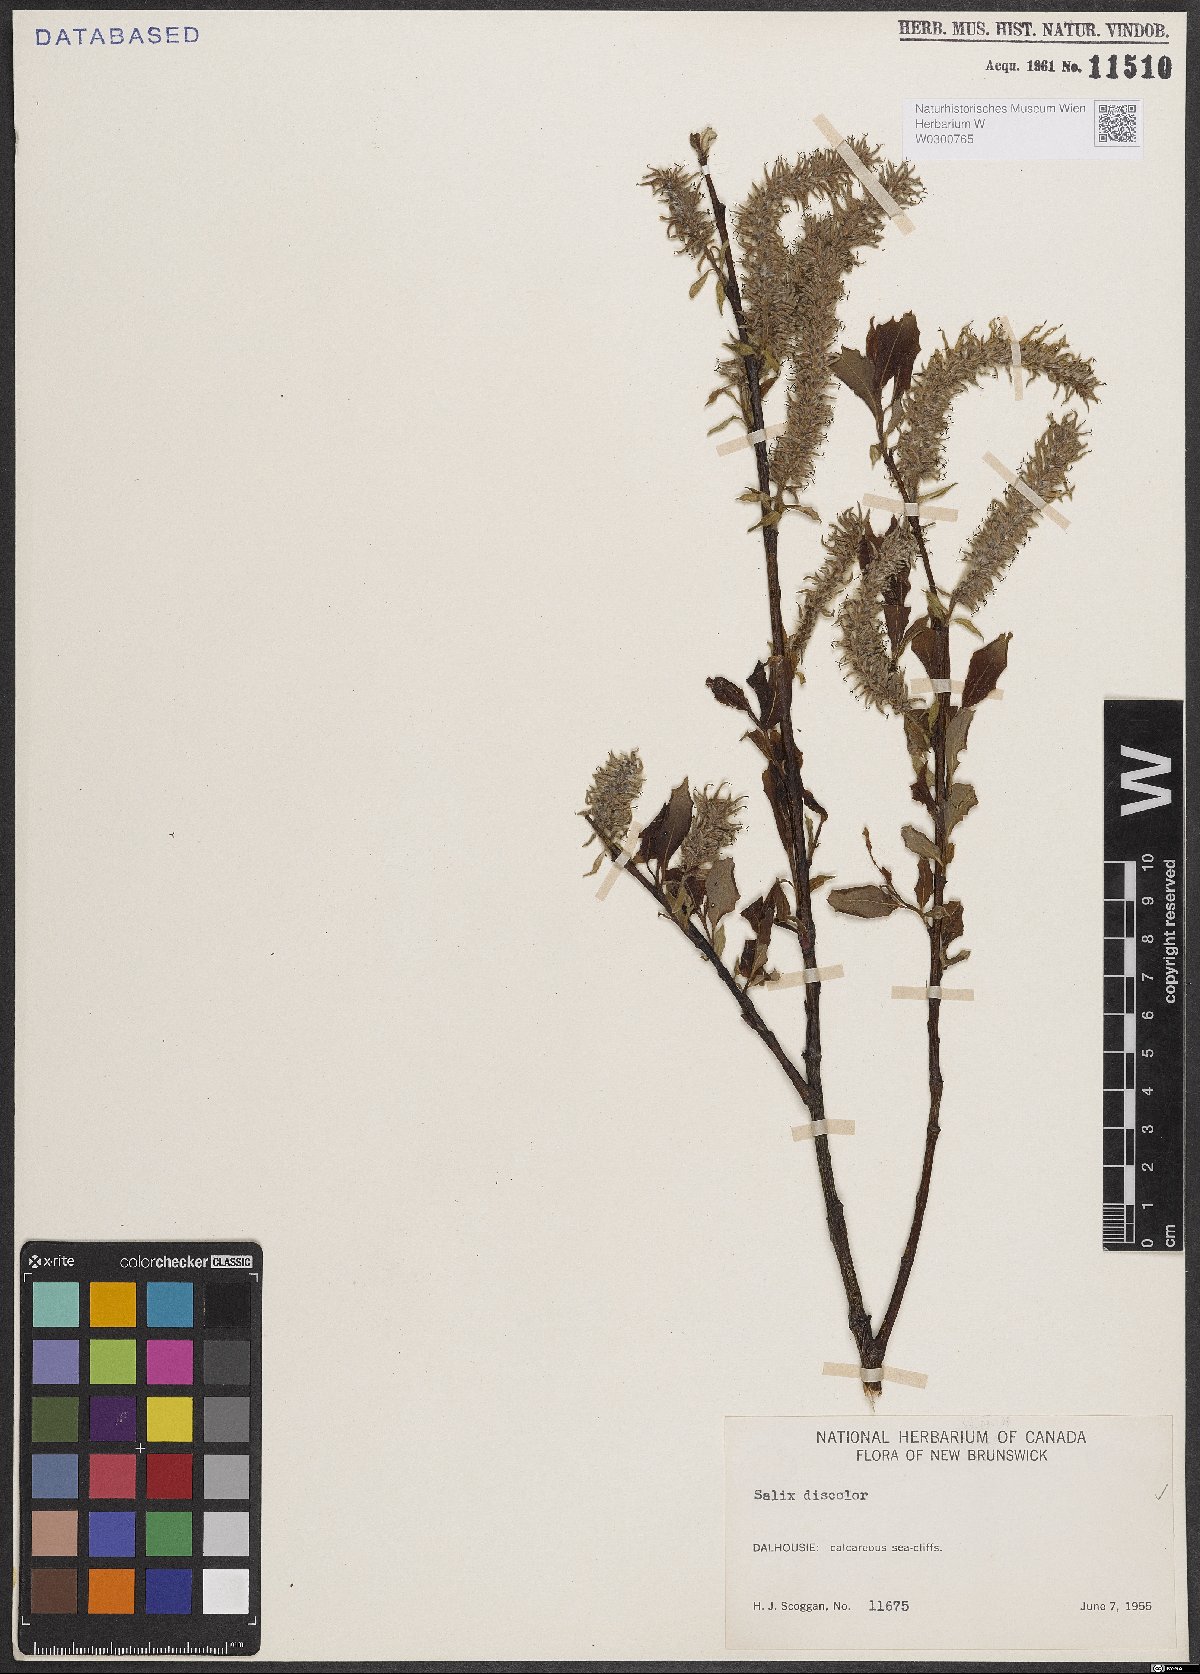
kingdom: Plantae
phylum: Tracheophyta
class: Magnoliopsida
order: Malpighiales
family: Salicaceae
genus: Salix
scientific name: Salix discolor
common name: Glaucous willow
